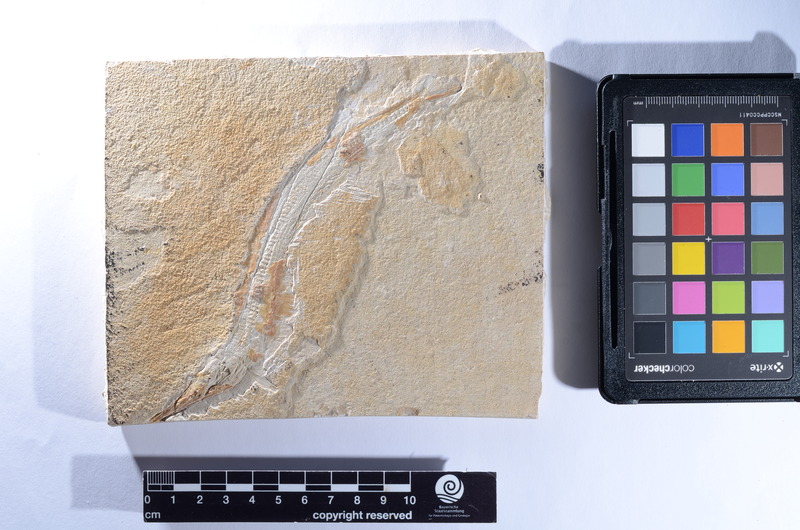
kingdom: Animalia
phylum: Chordata
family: Aspidorhynchidae
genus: Belonostomus
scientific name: Belonostomus
